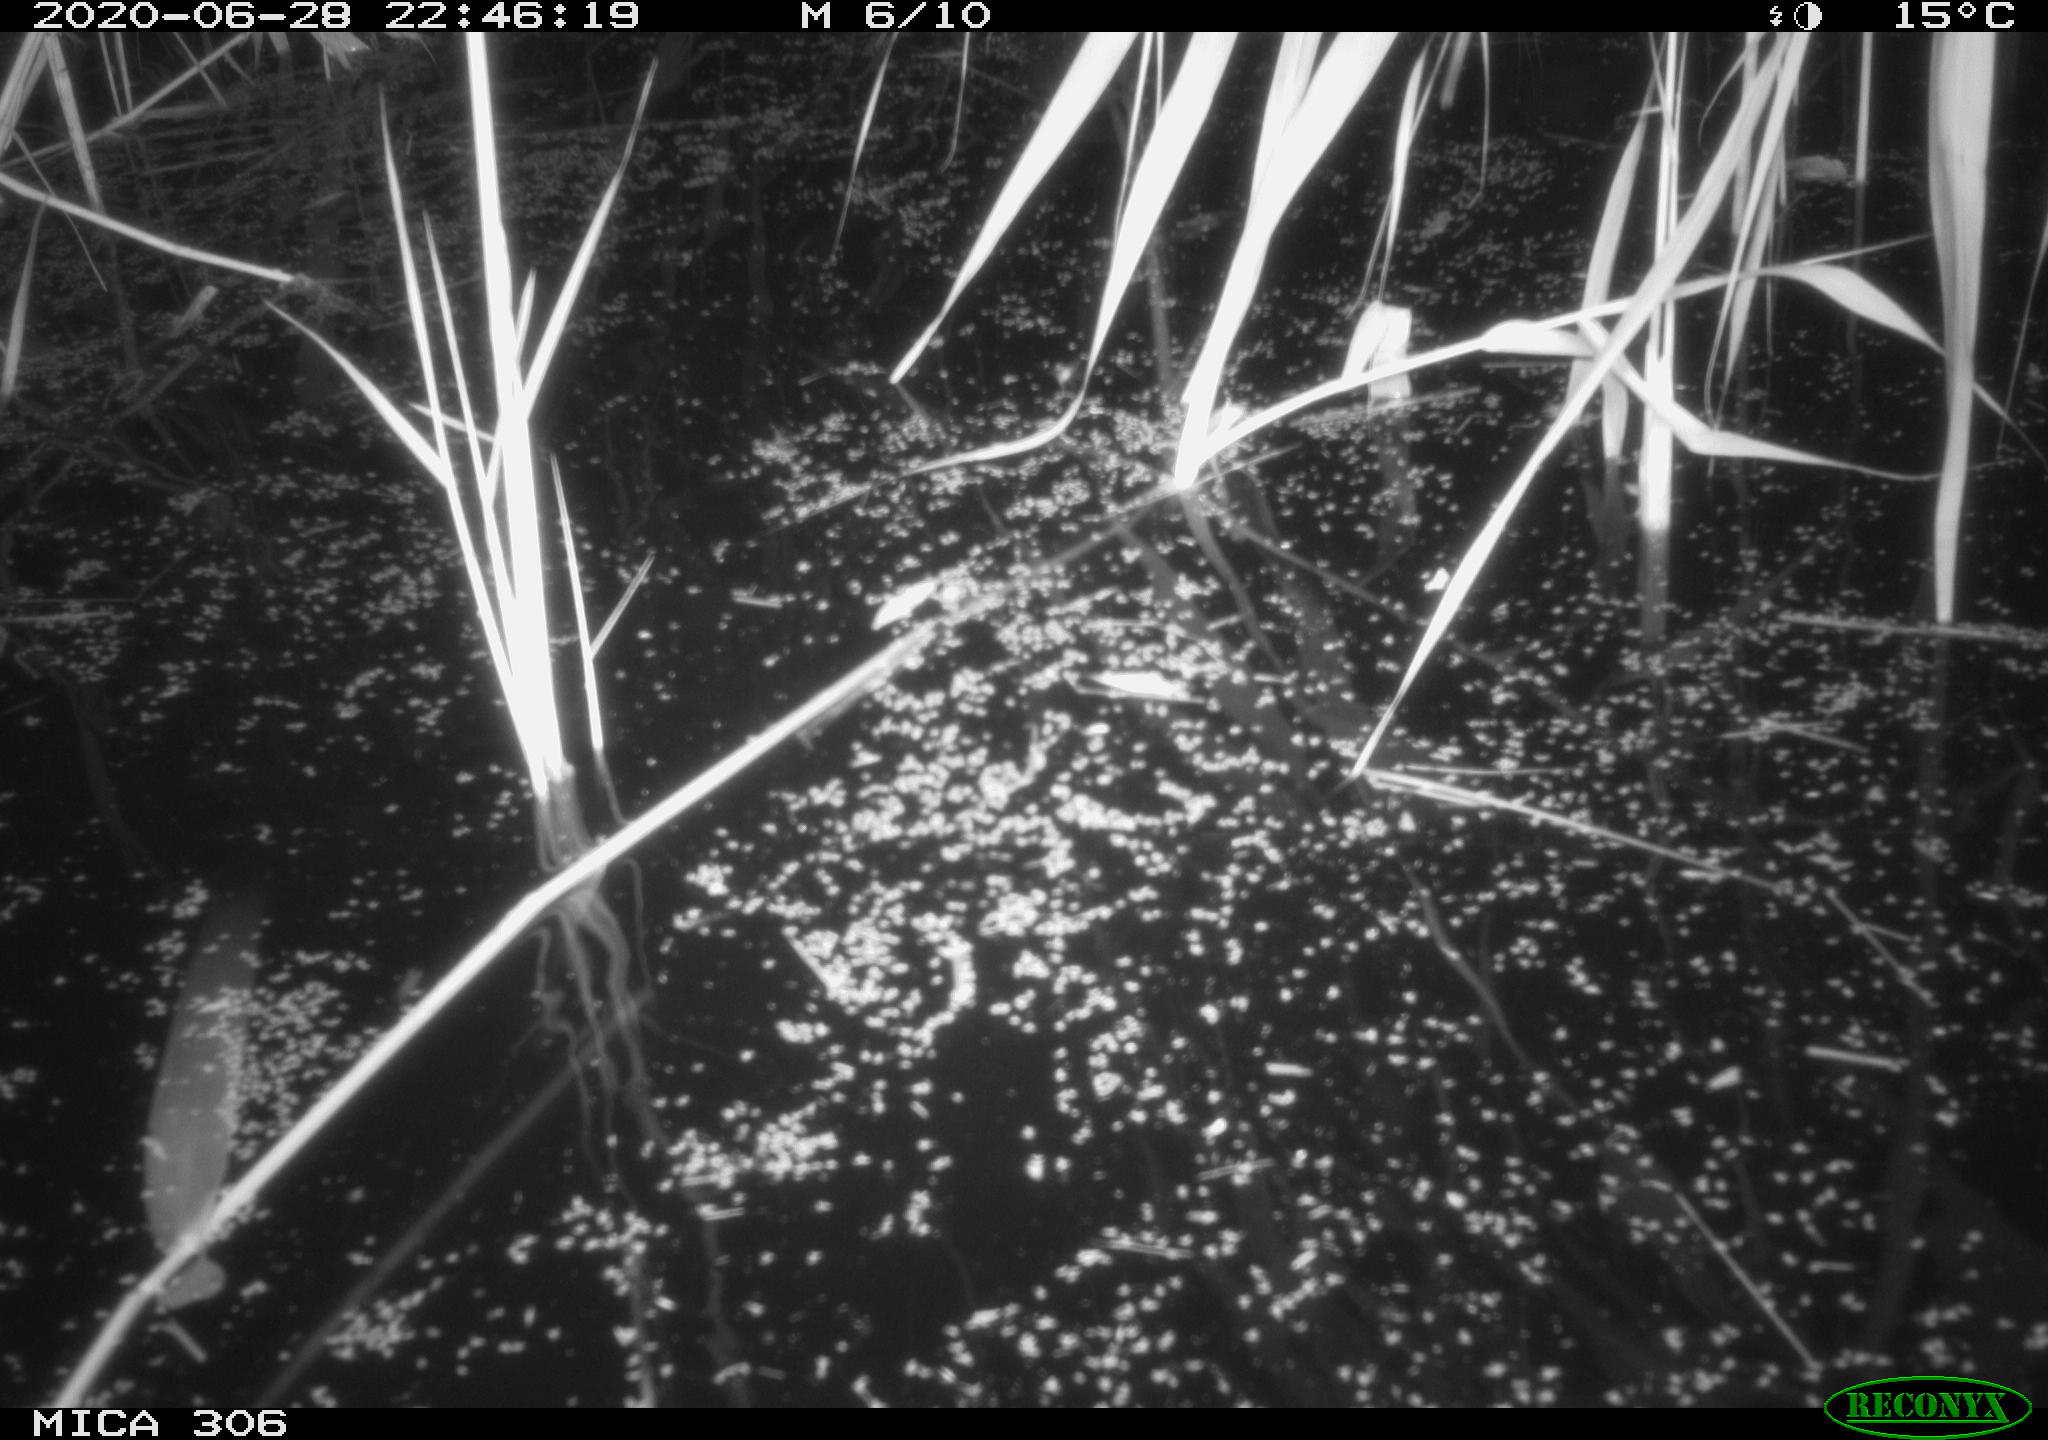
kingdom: Animalia
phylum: Chordata
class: Mammalia
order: Rodentia
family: Muridae
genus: Rattus
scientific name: Rattus norvegicus
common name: Brown rat
